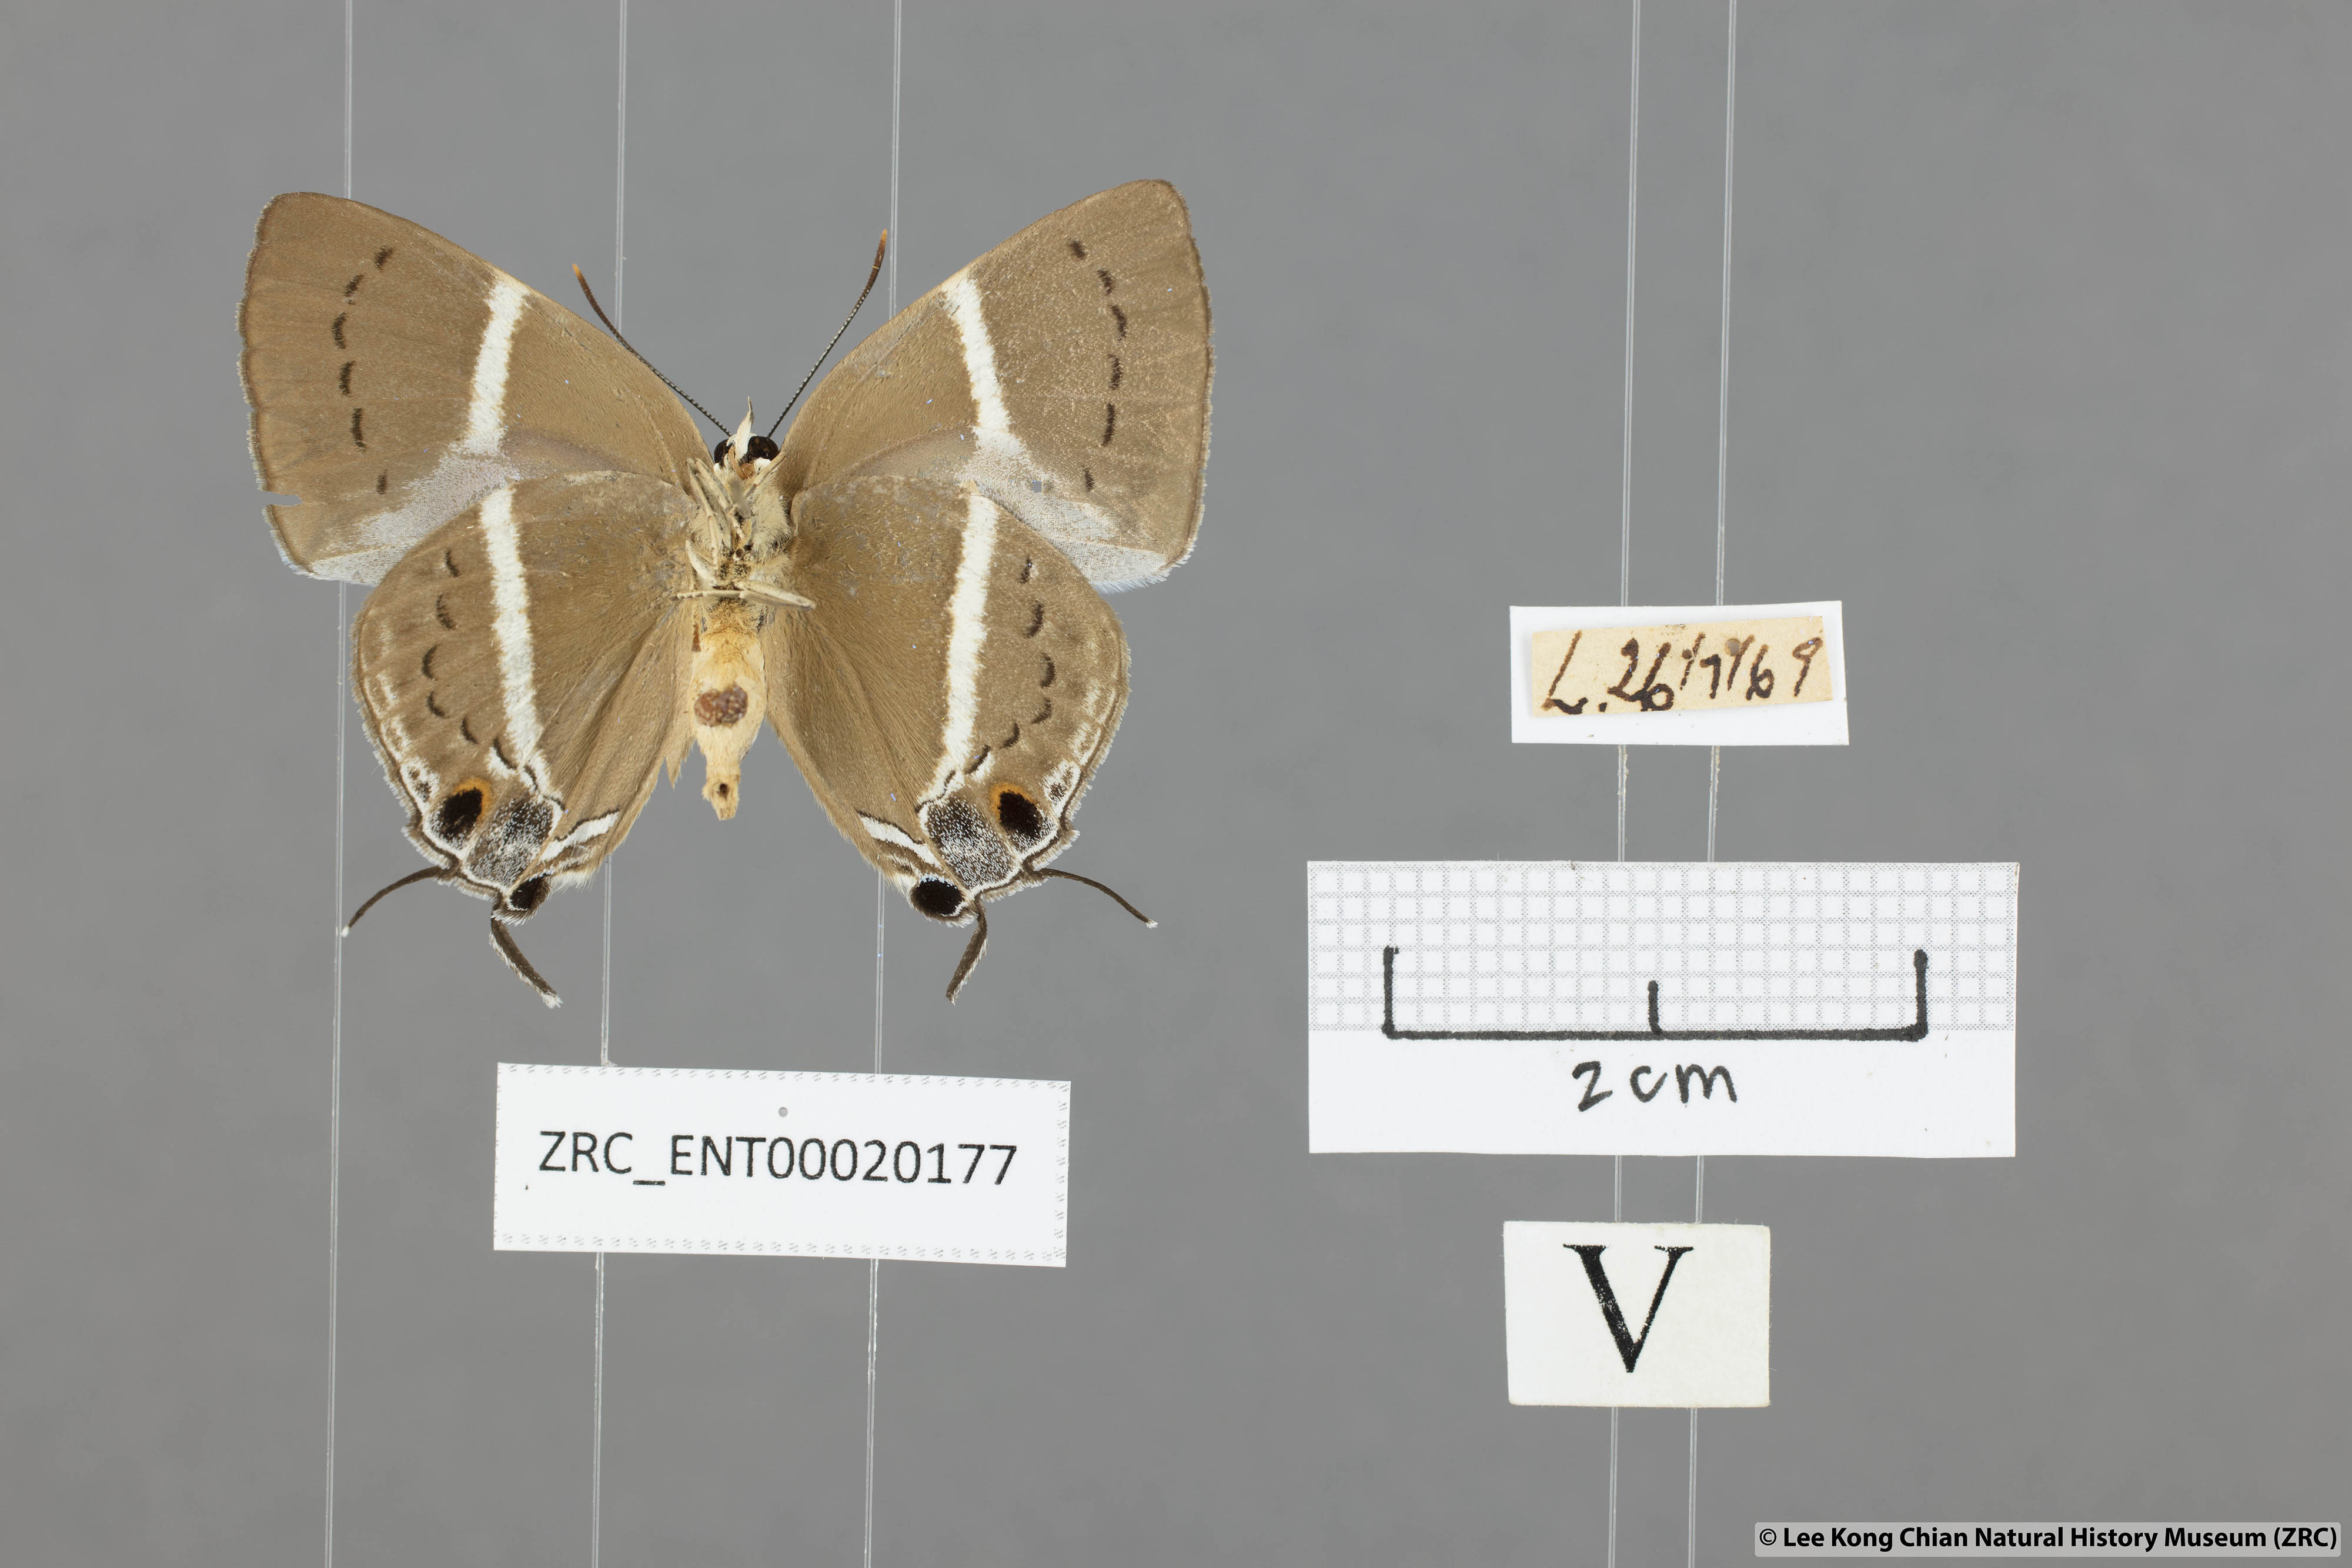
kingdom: Animalia
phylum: Arthropoda
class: Insecta
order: Lepidoptera
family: Lycaenidae
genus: Dacalana
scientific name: Dacalana vidura
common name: Medium-branded royal
